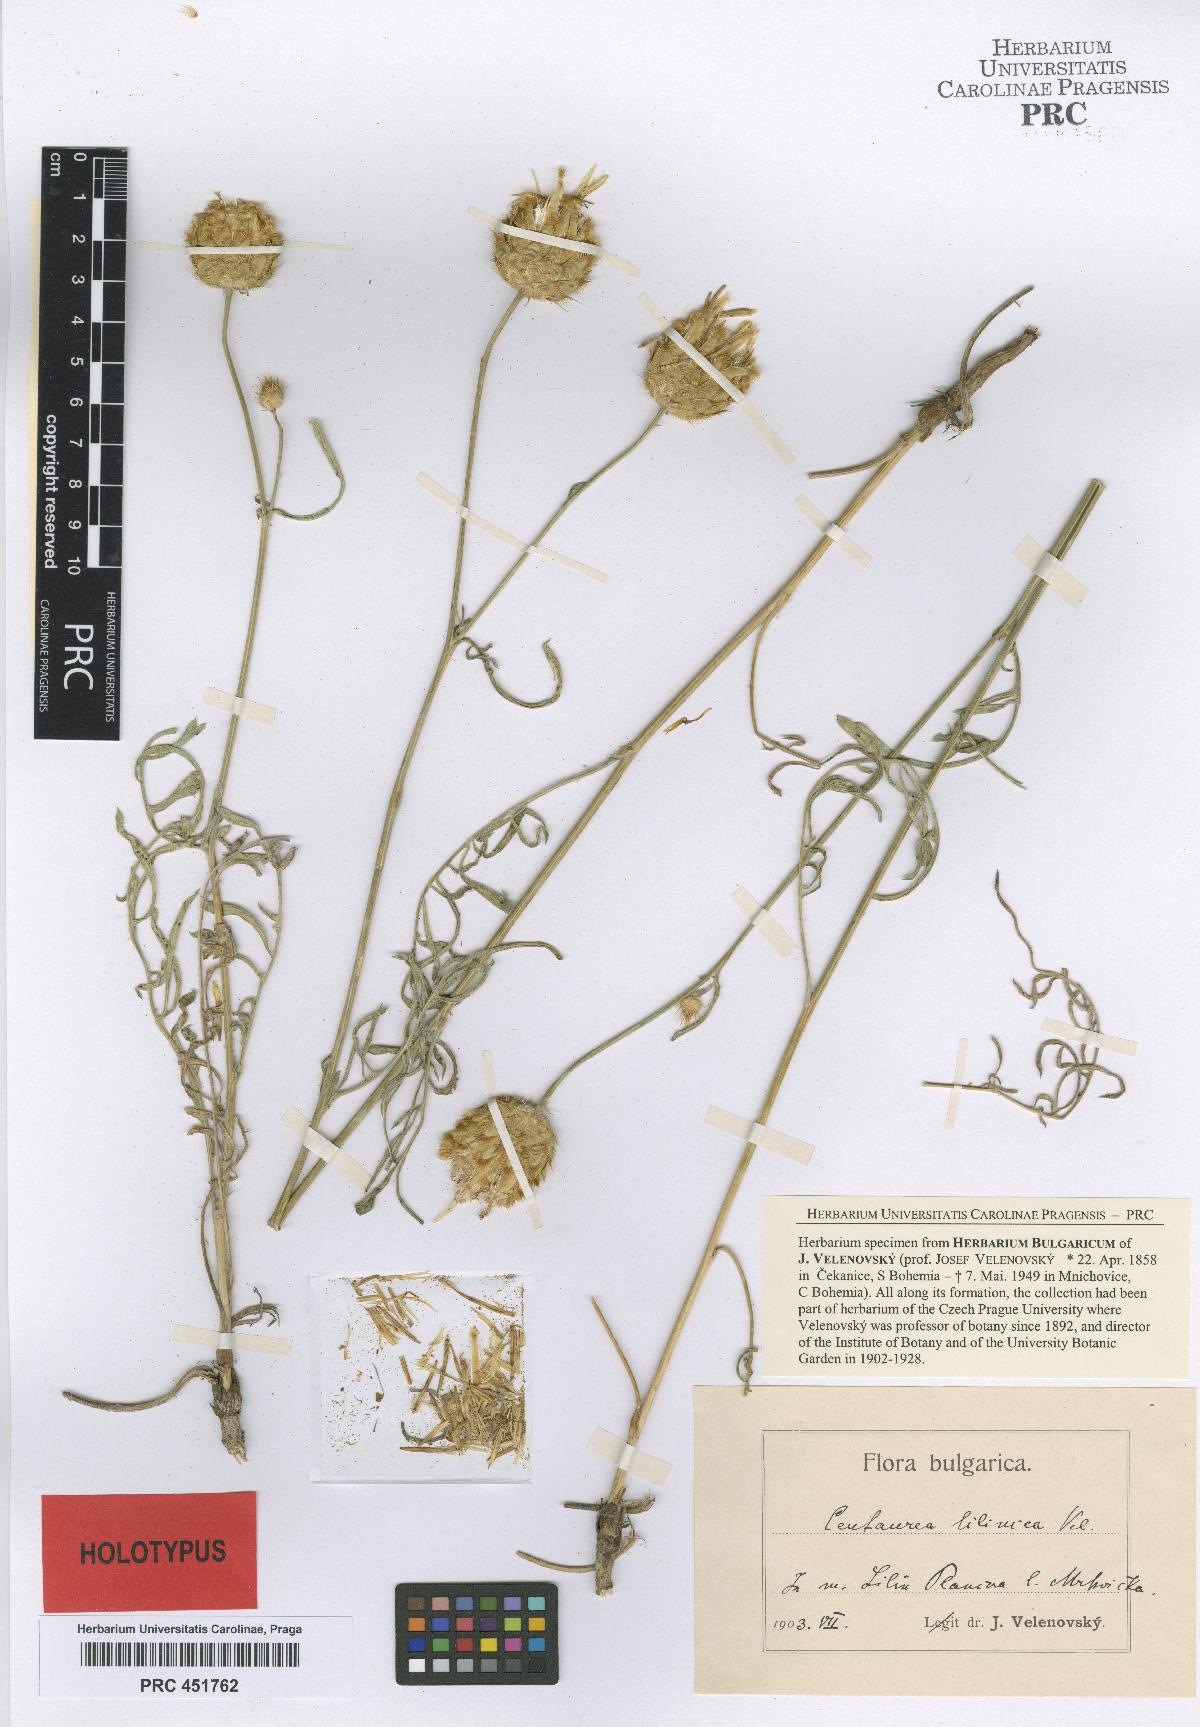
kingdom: Plantae
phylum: Tracheophyta
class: Magnoliopsida
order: Asterales
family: Asteraceae
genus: Centaurea
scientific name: Centaurea salonitana
